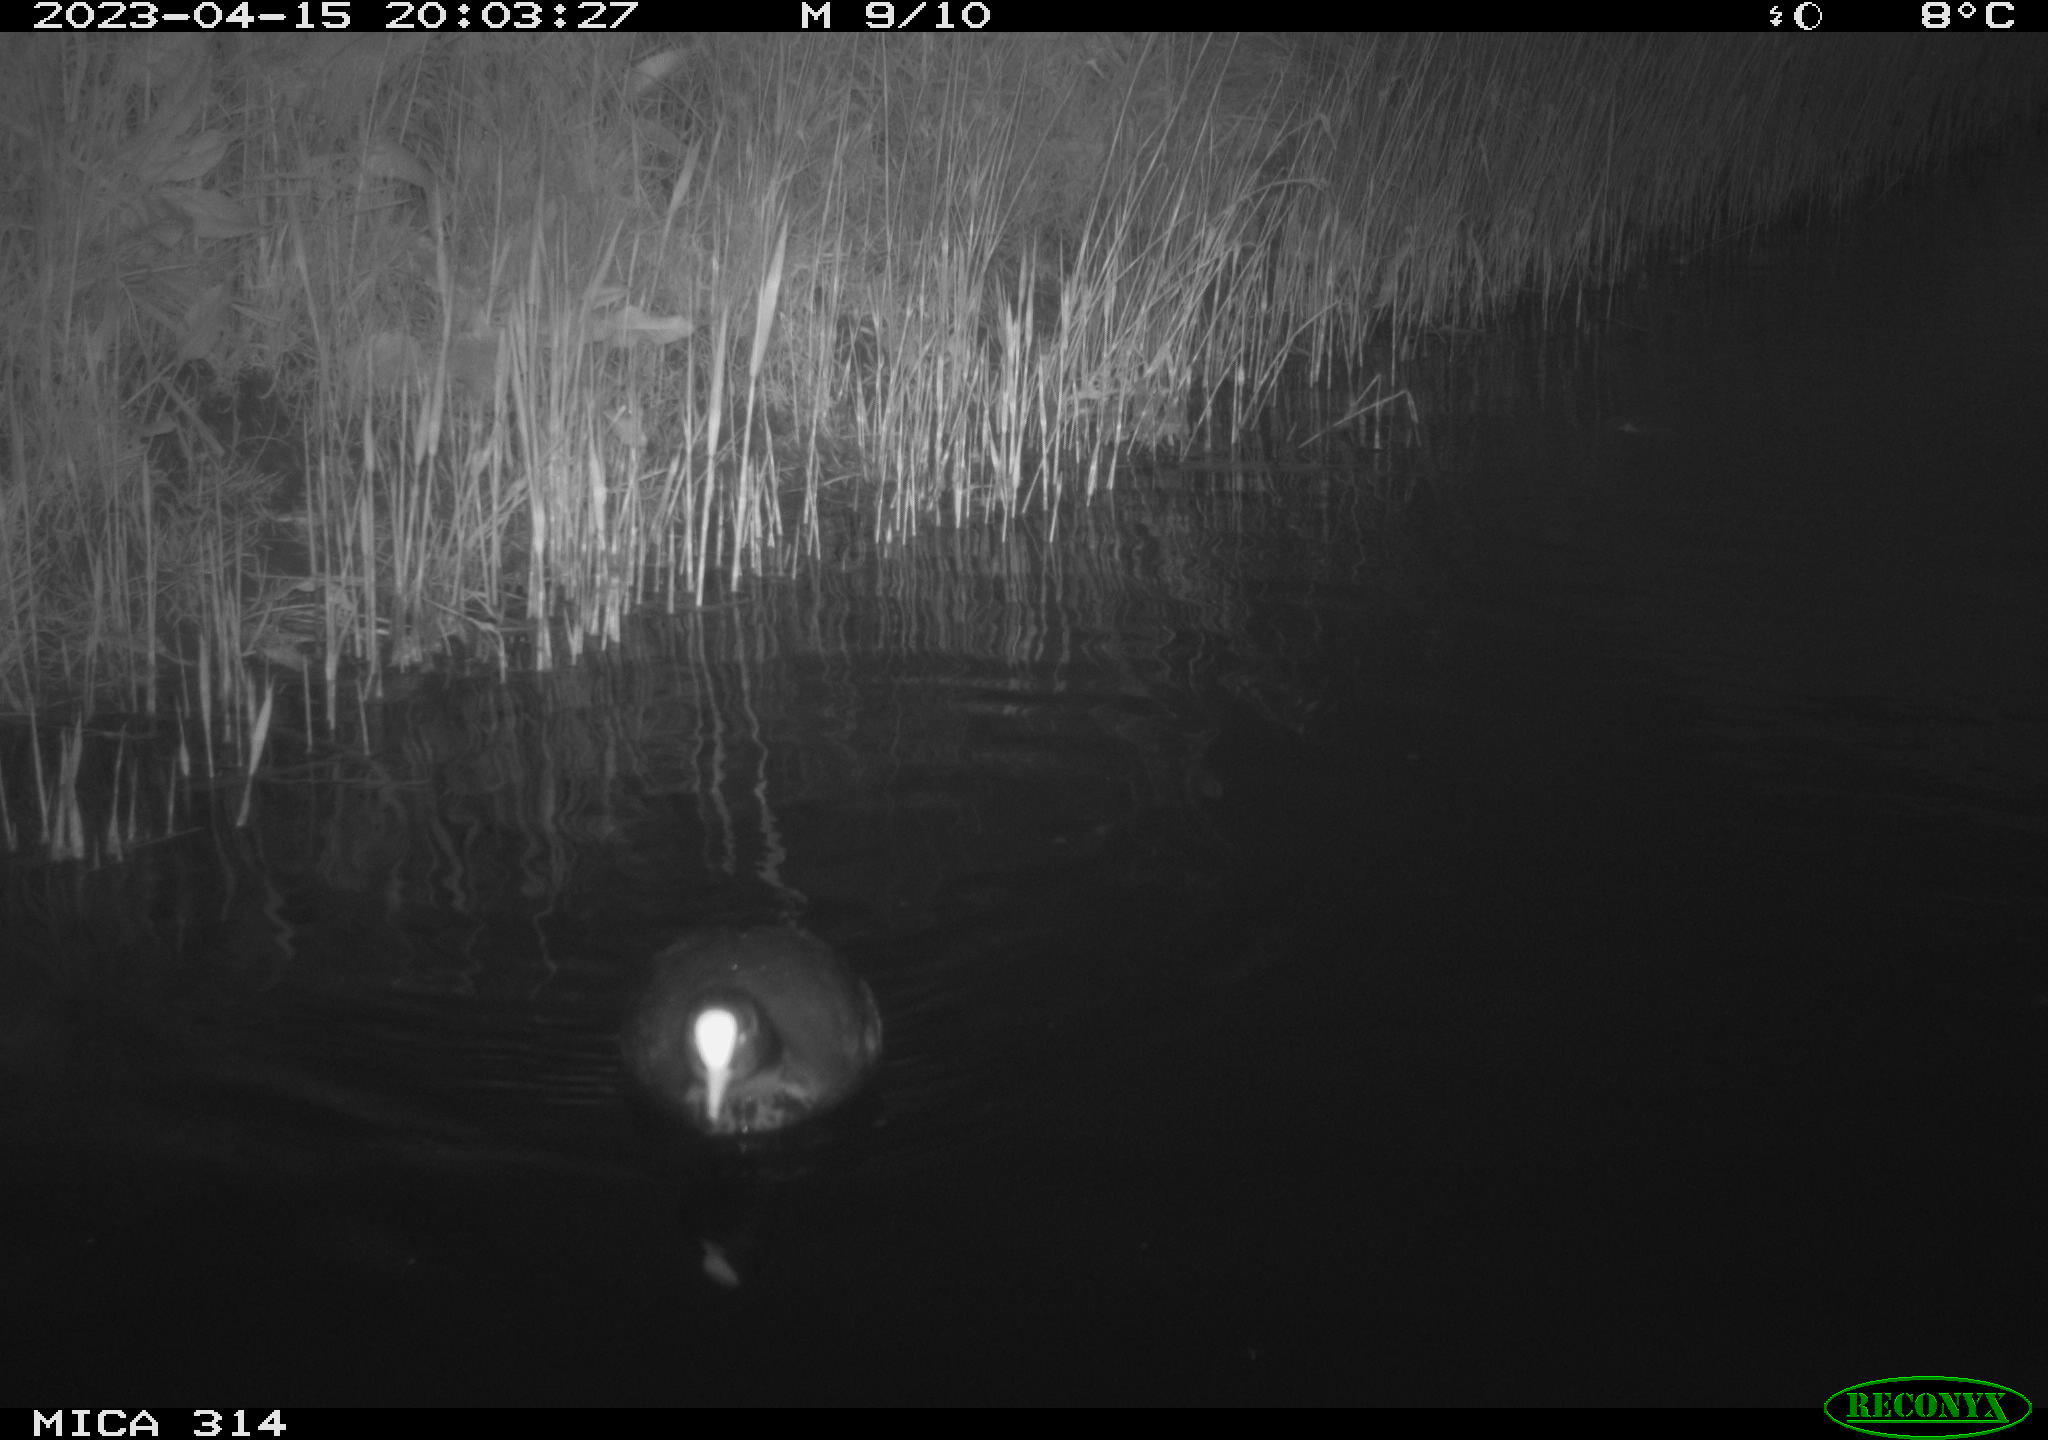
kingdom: Animalia
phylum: Chordata
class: Aves
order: Gruiformes
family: Rallidae
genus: Fulica
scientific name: Fulica atra
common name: Eurasian coot
